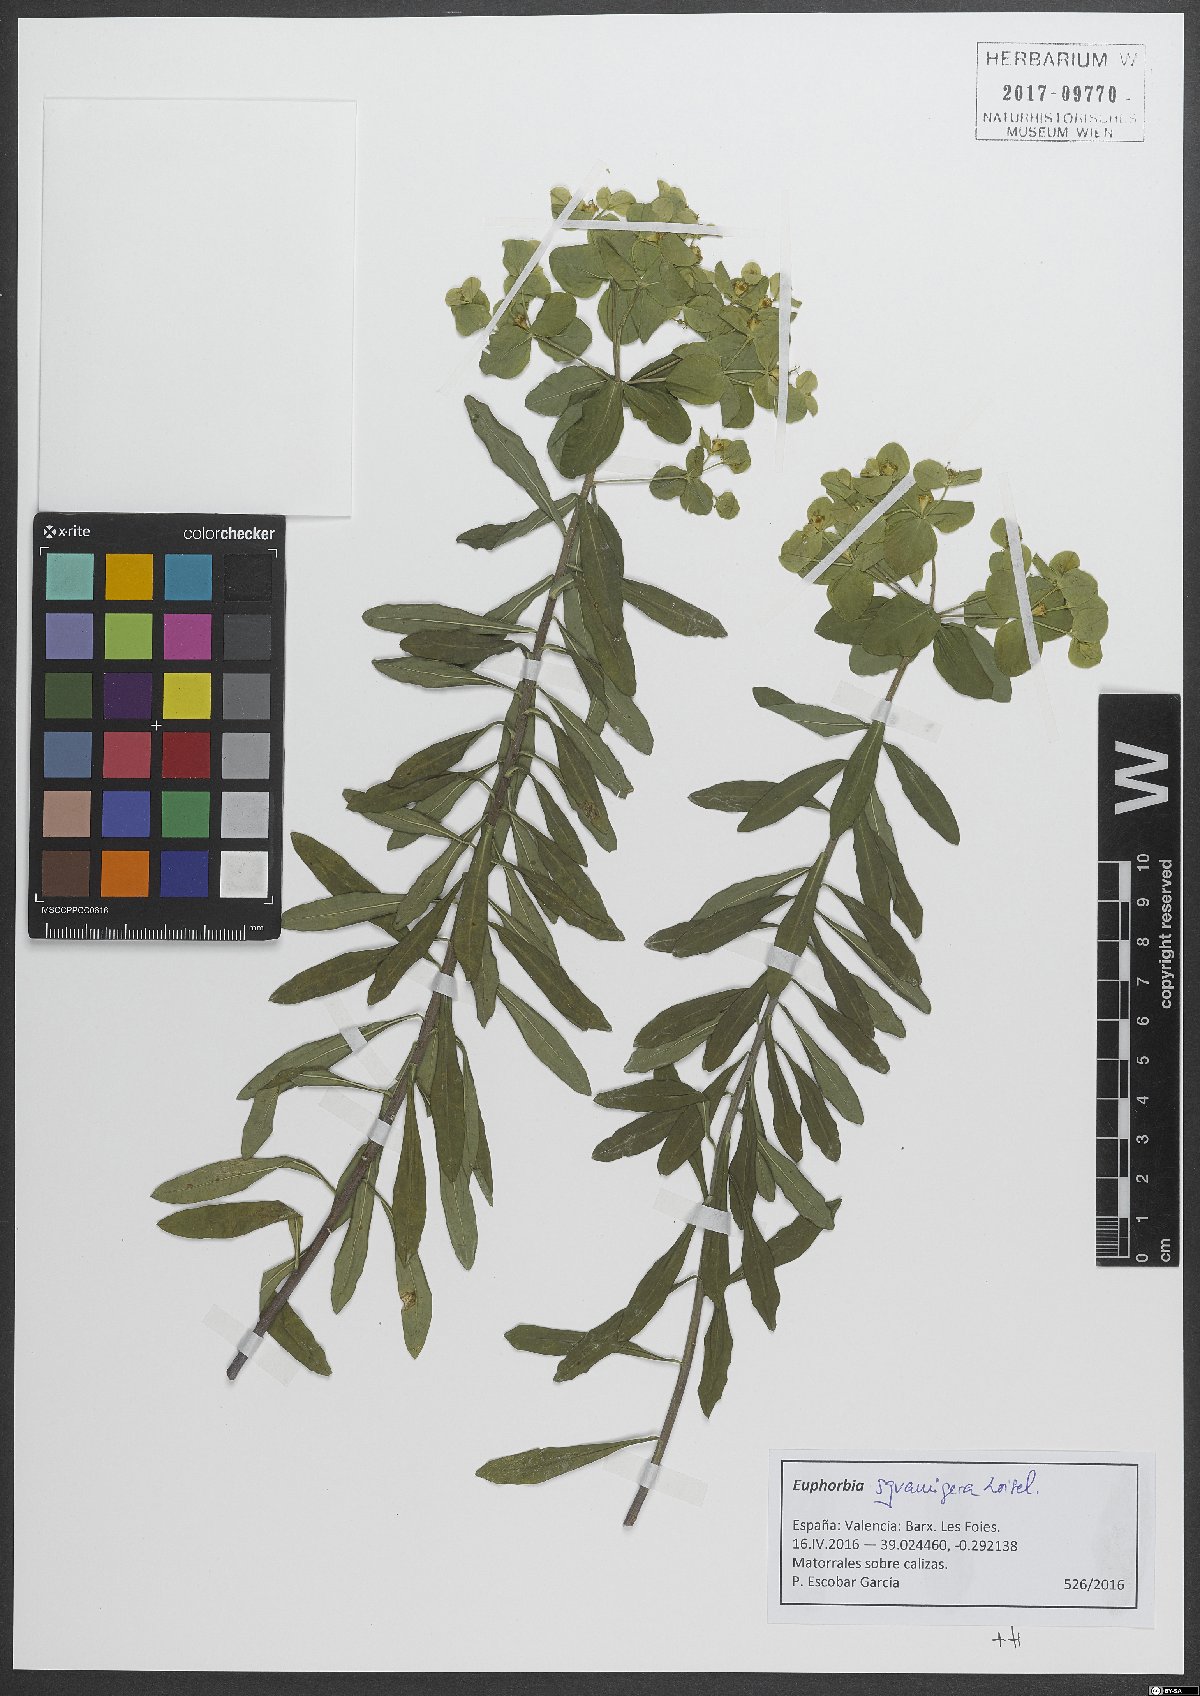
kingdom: Plantae
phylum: Tracheophyta
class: Magnoliopsida
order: Malpighiales
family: Euphorbiaceae
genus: Euphorbia
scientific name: Euphorbia squamigera
